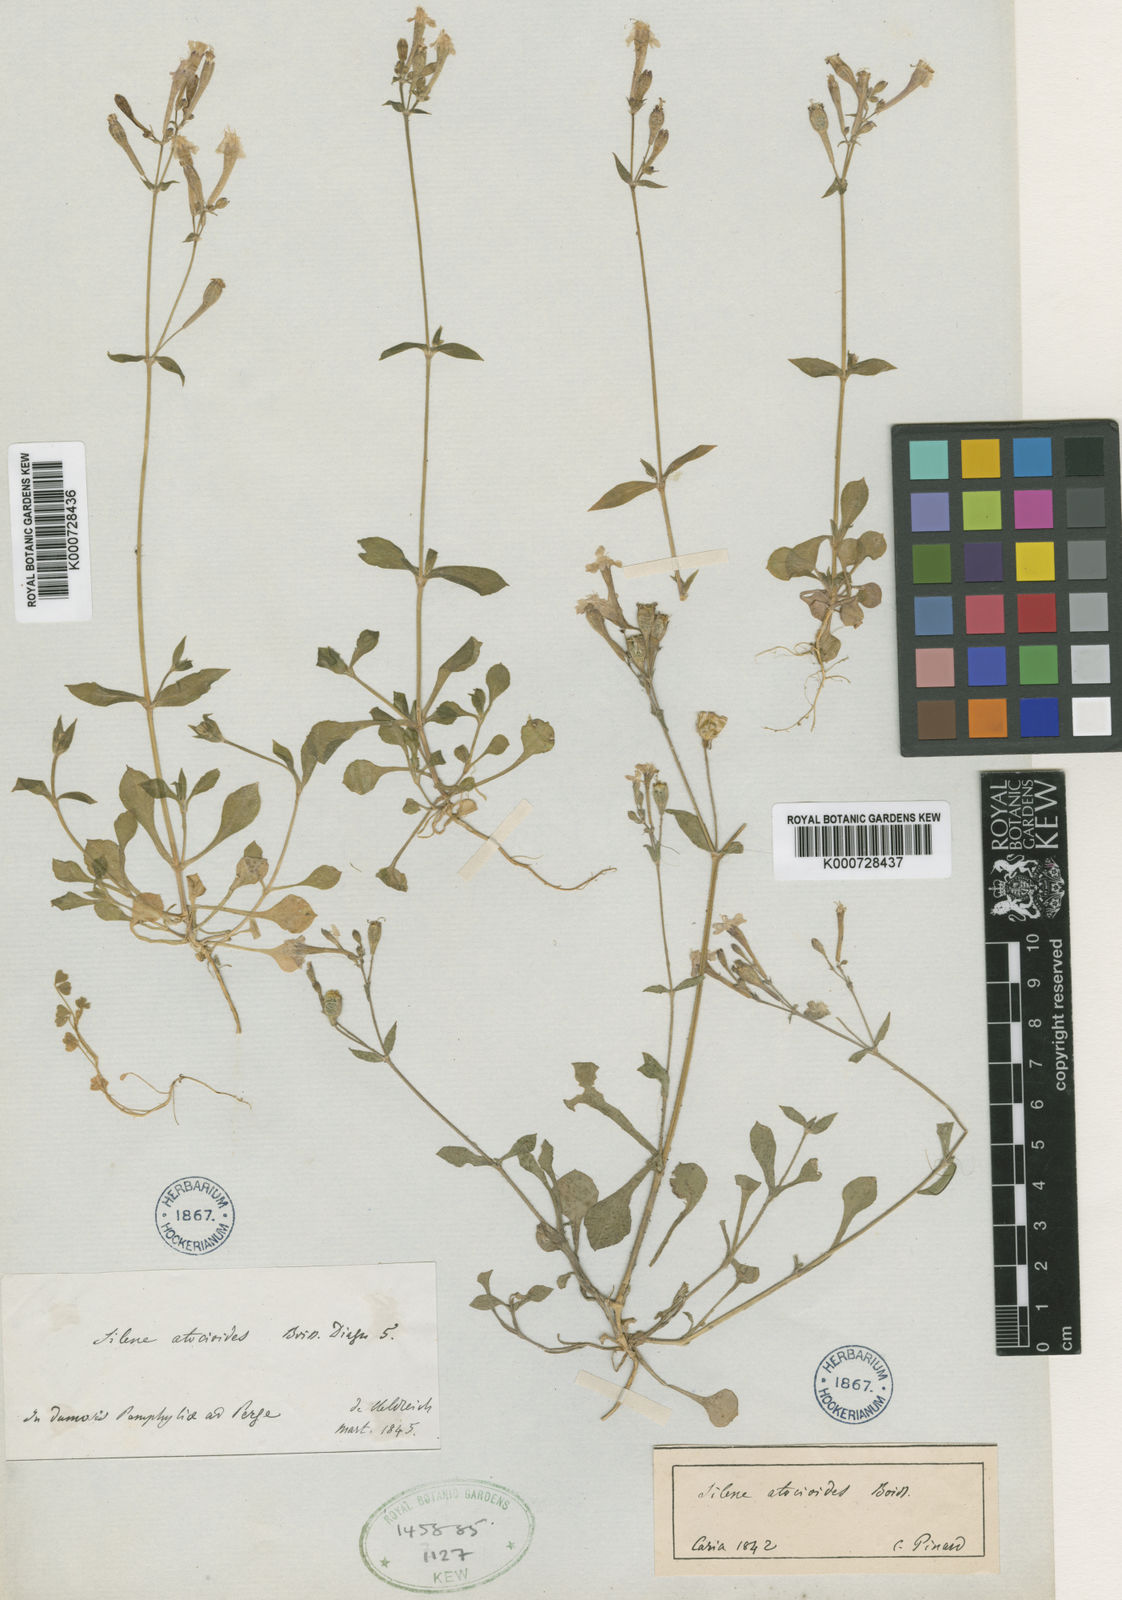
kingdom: Plantae
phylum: Tracheophyta
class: Magnoliopsida
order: Caryophyllales
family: Caryophyllaceae
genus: Silene
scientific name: Silene
